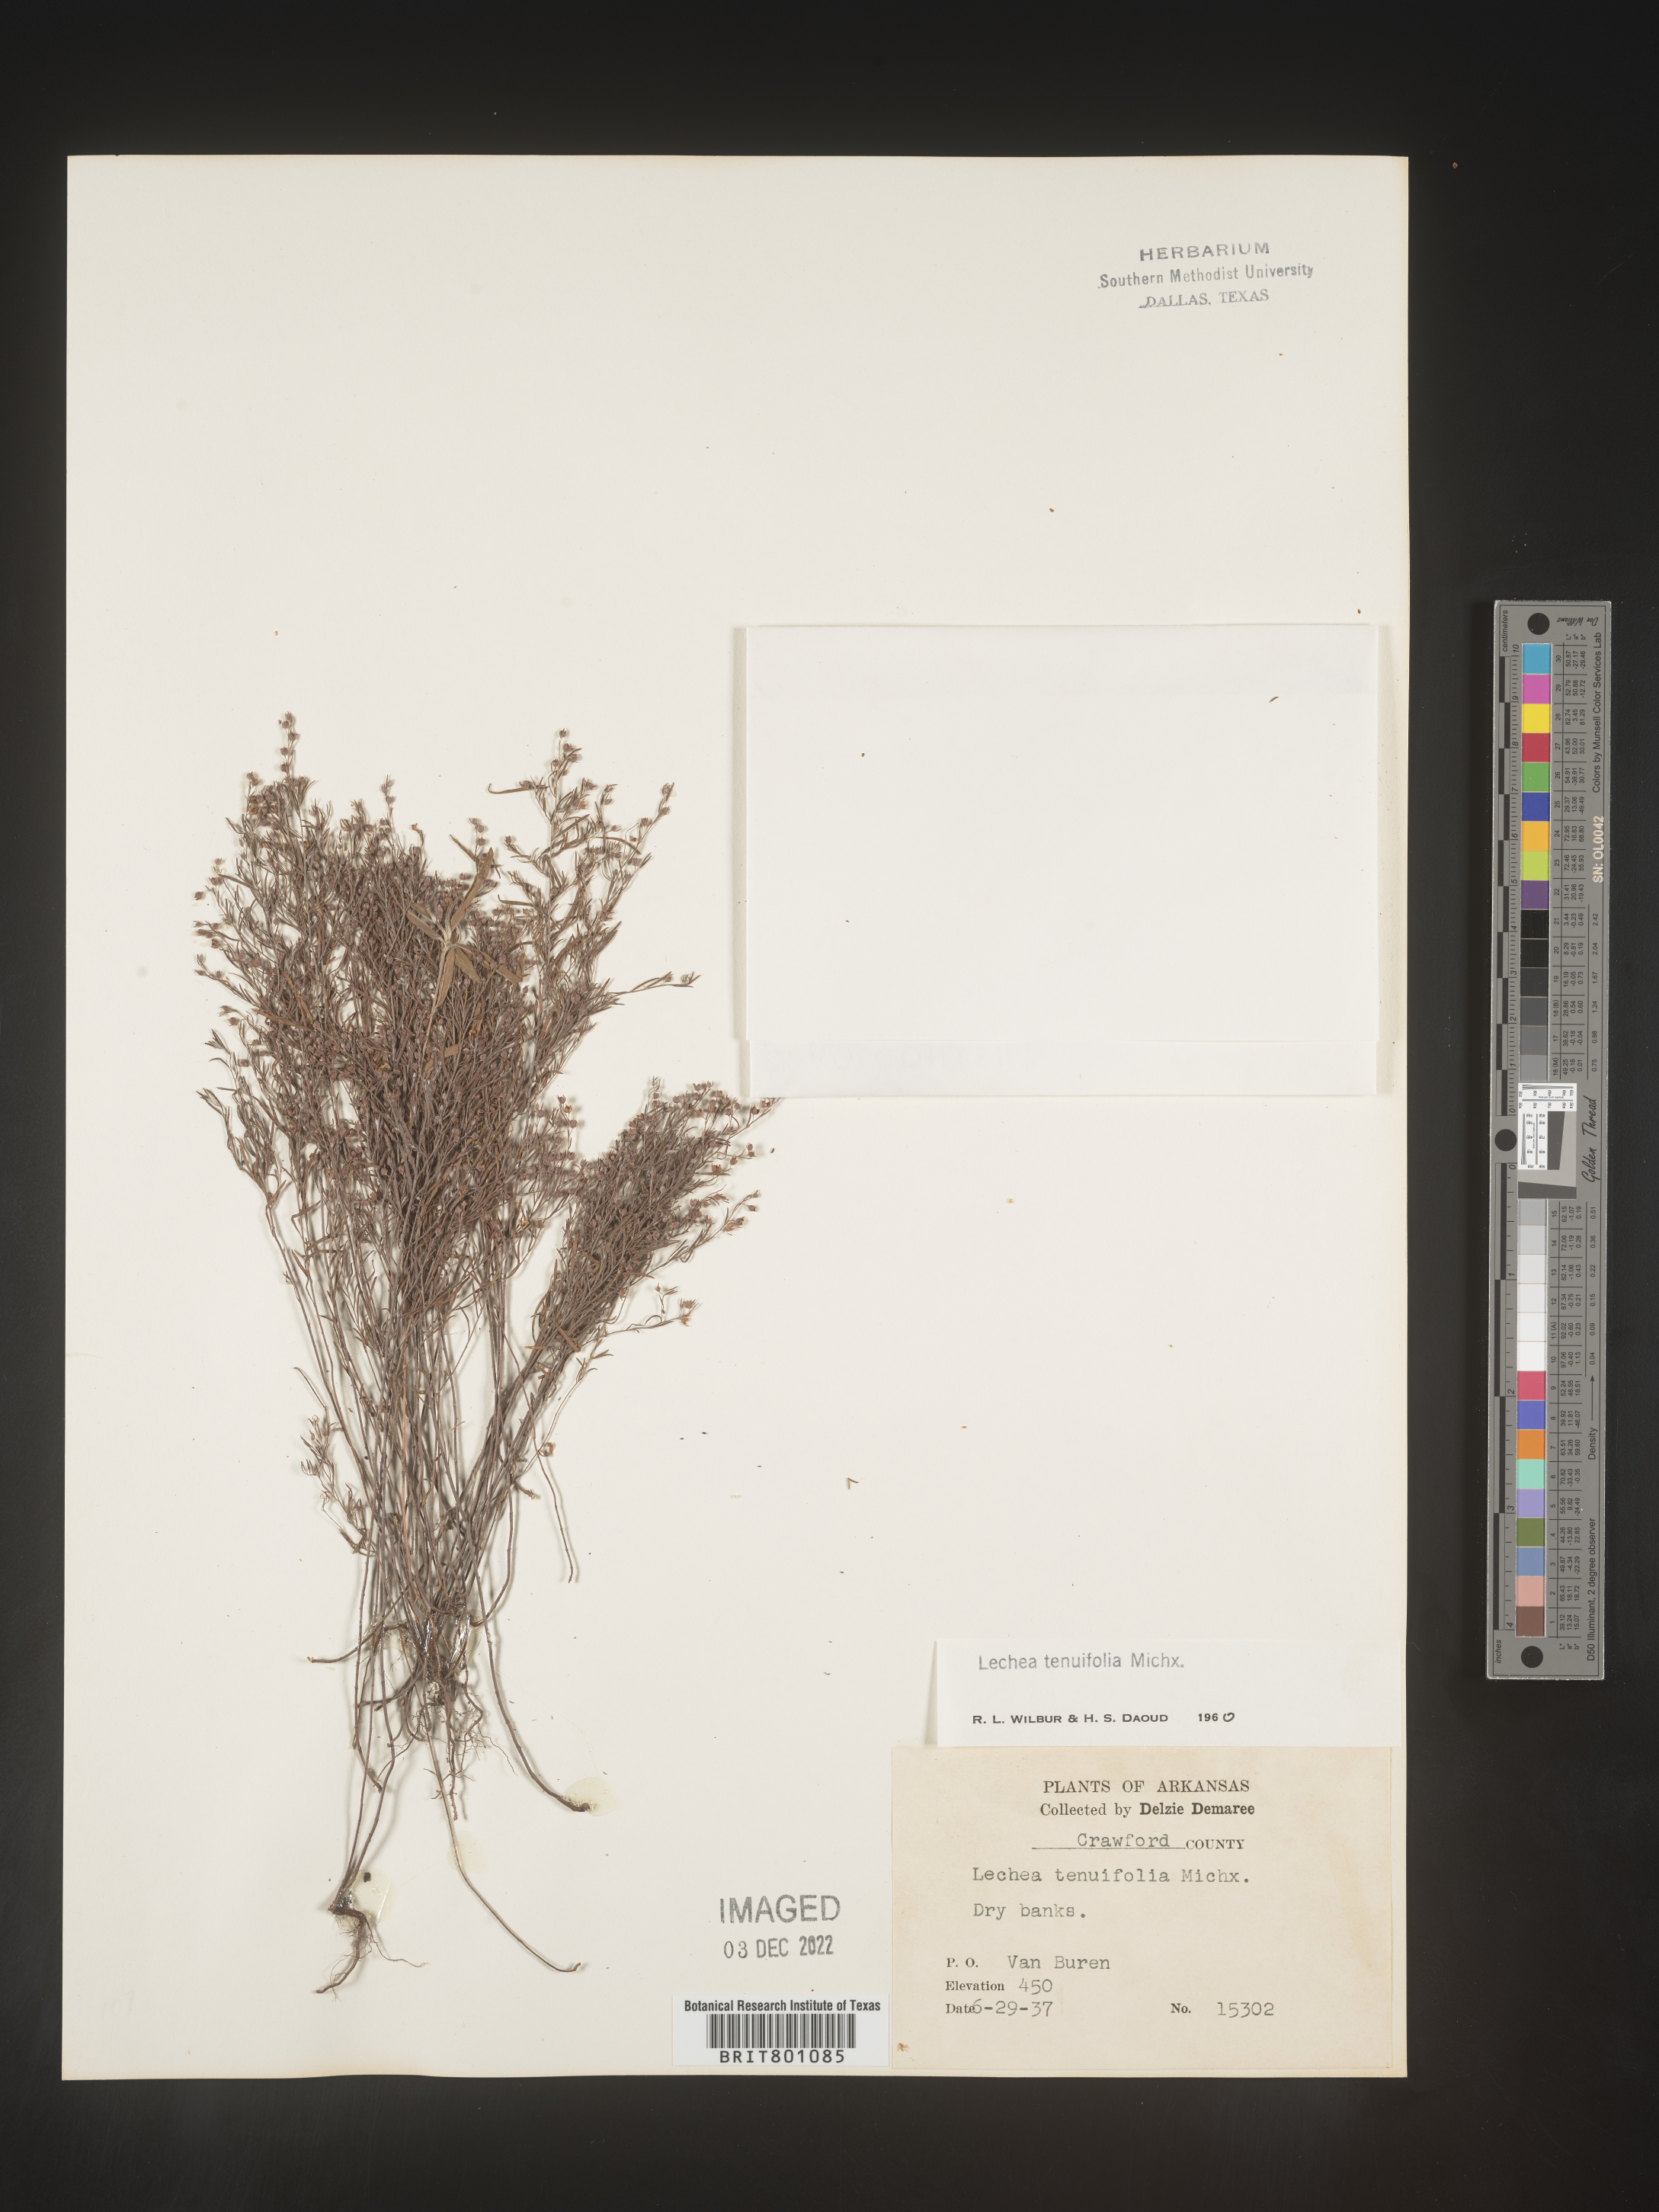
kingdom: Plantae
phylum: Tracheophyta
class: Magnoliopsida
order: Malvales
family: Cistaceae
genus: Lechea
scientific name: Lechea tenuifolia
